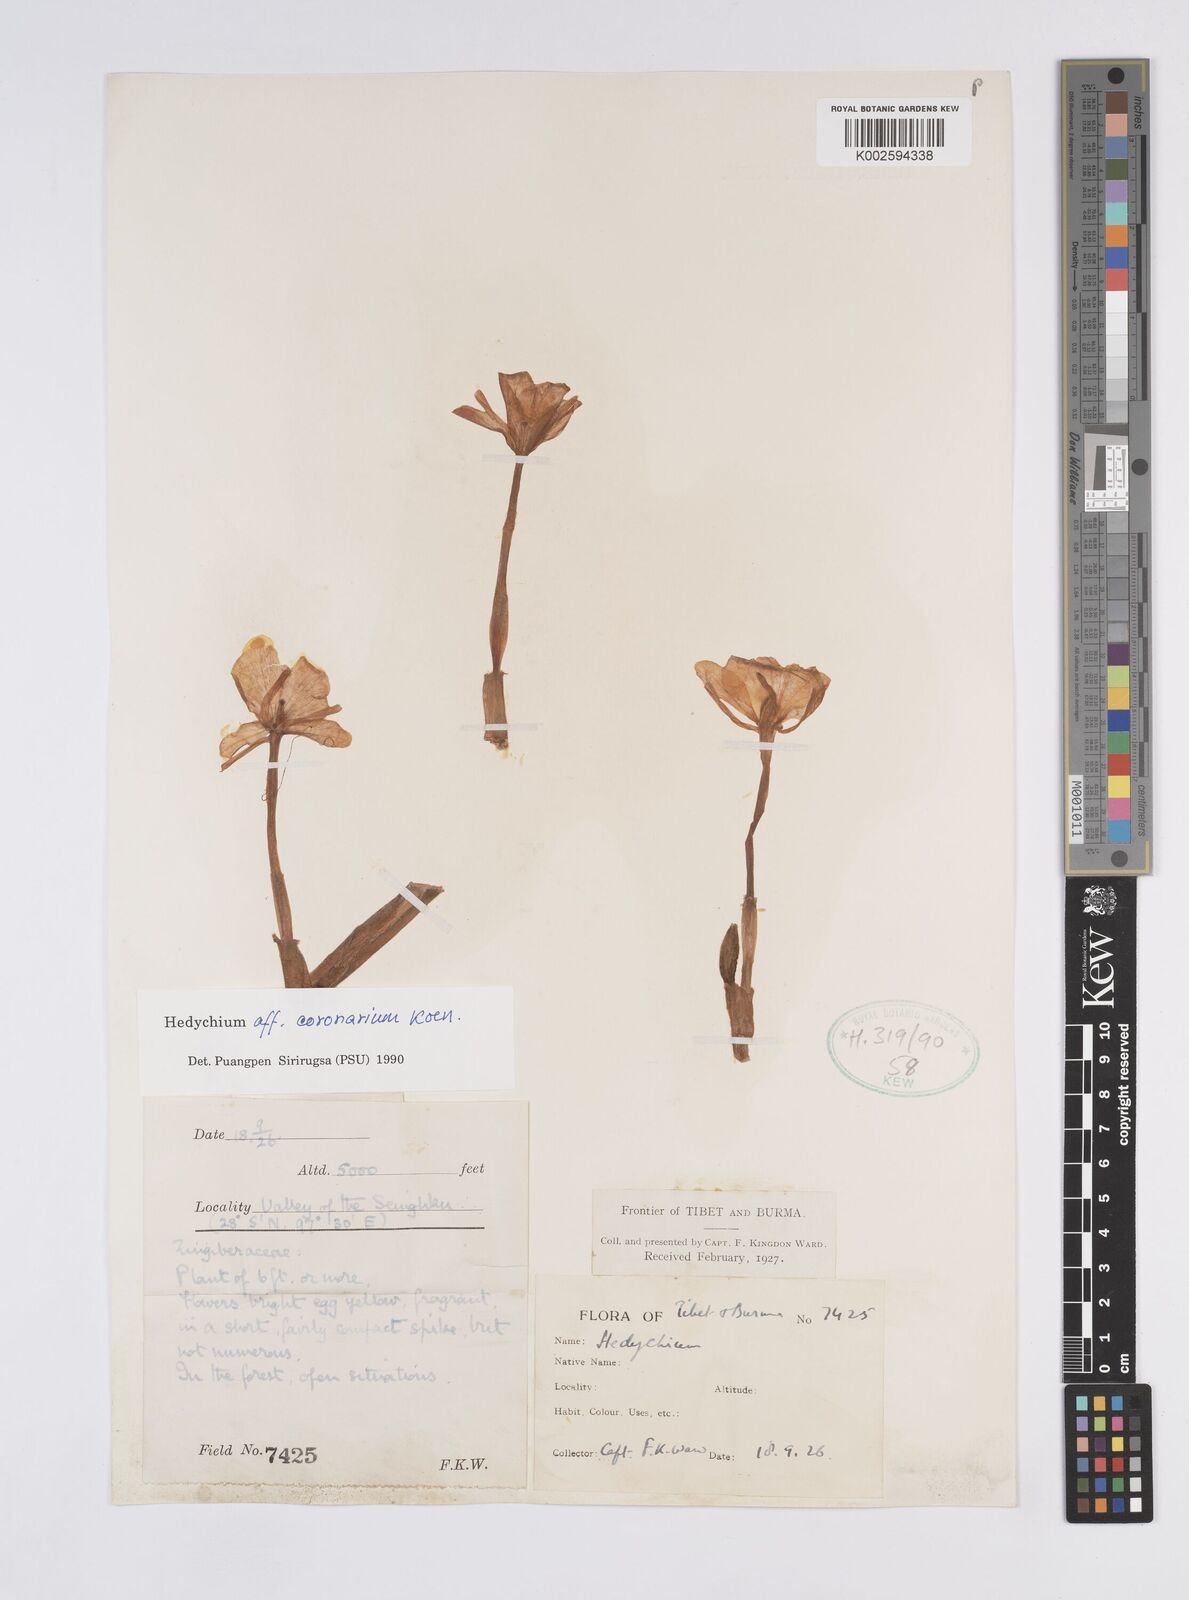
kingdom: Plantae
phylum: Tracheophyta
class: Liliopsida
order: Zingiberales
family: Zingiberaceae
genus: Hedychium
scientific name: Hedychium flavum
